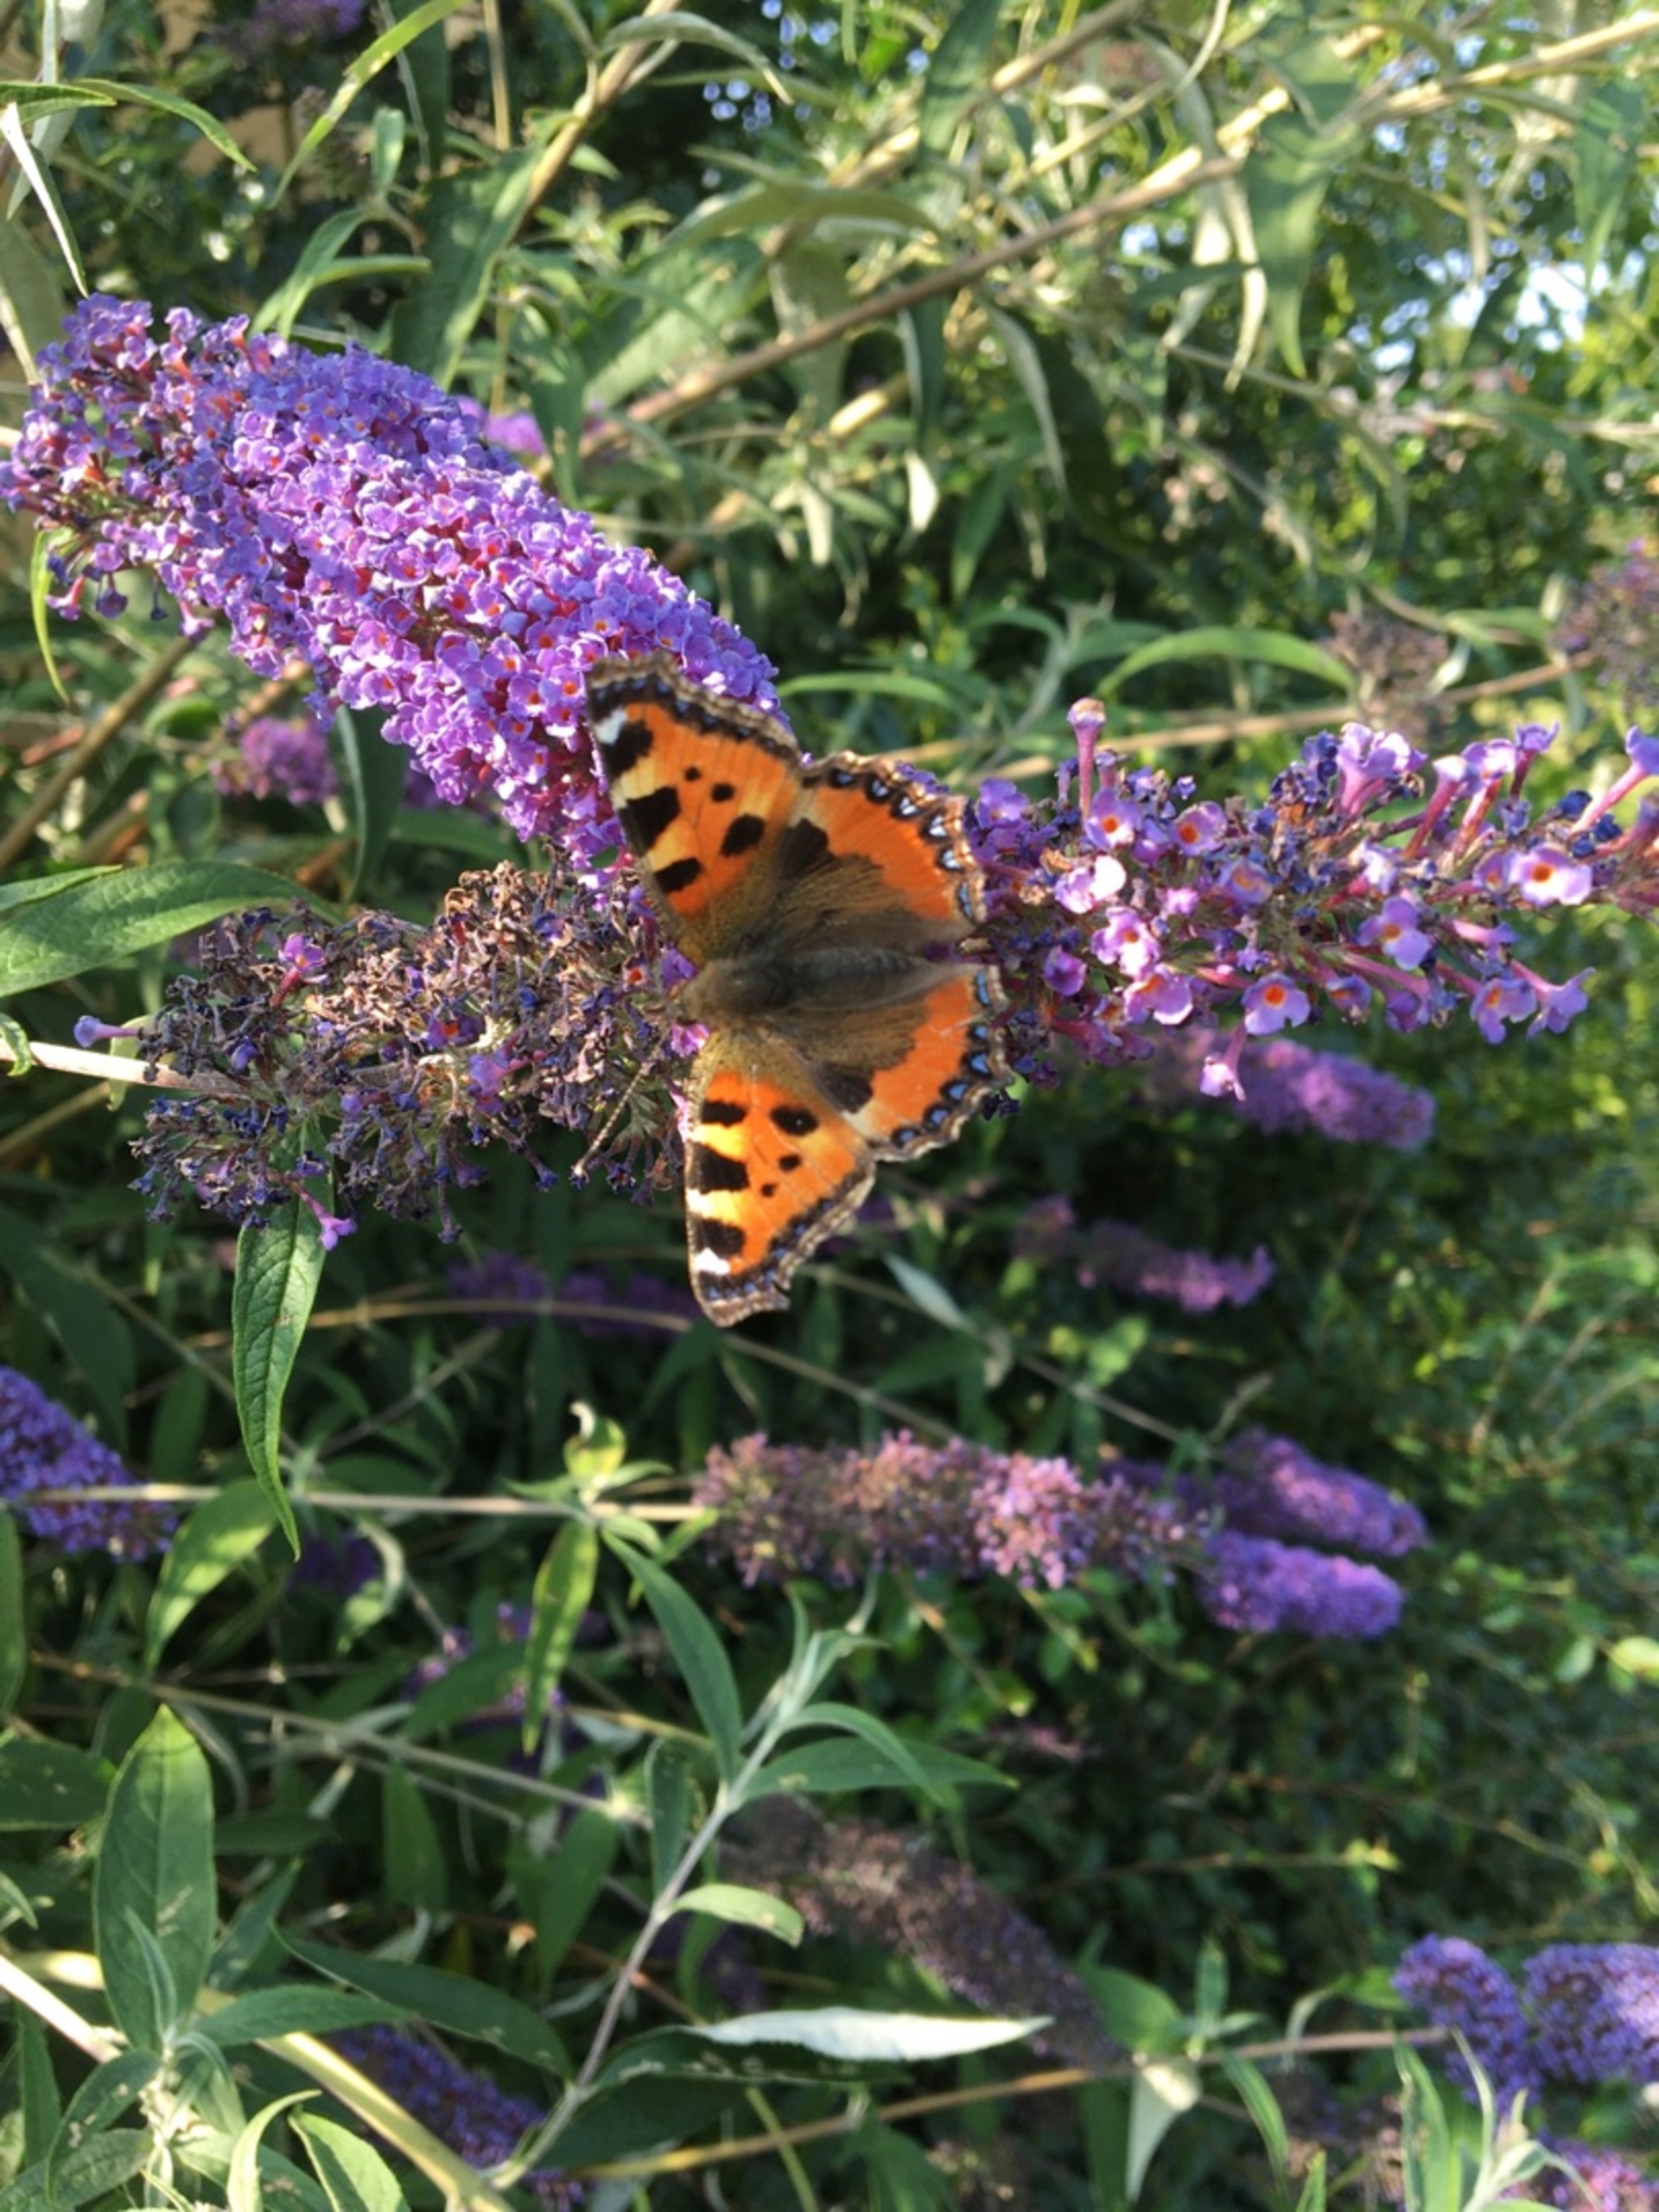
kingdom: Animalia
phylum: Arthropoda
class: Insecta
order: Lepidoptera
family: Nymphalidae
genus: Aglais
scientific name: Aglais urticae
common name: Nældens takvinge
